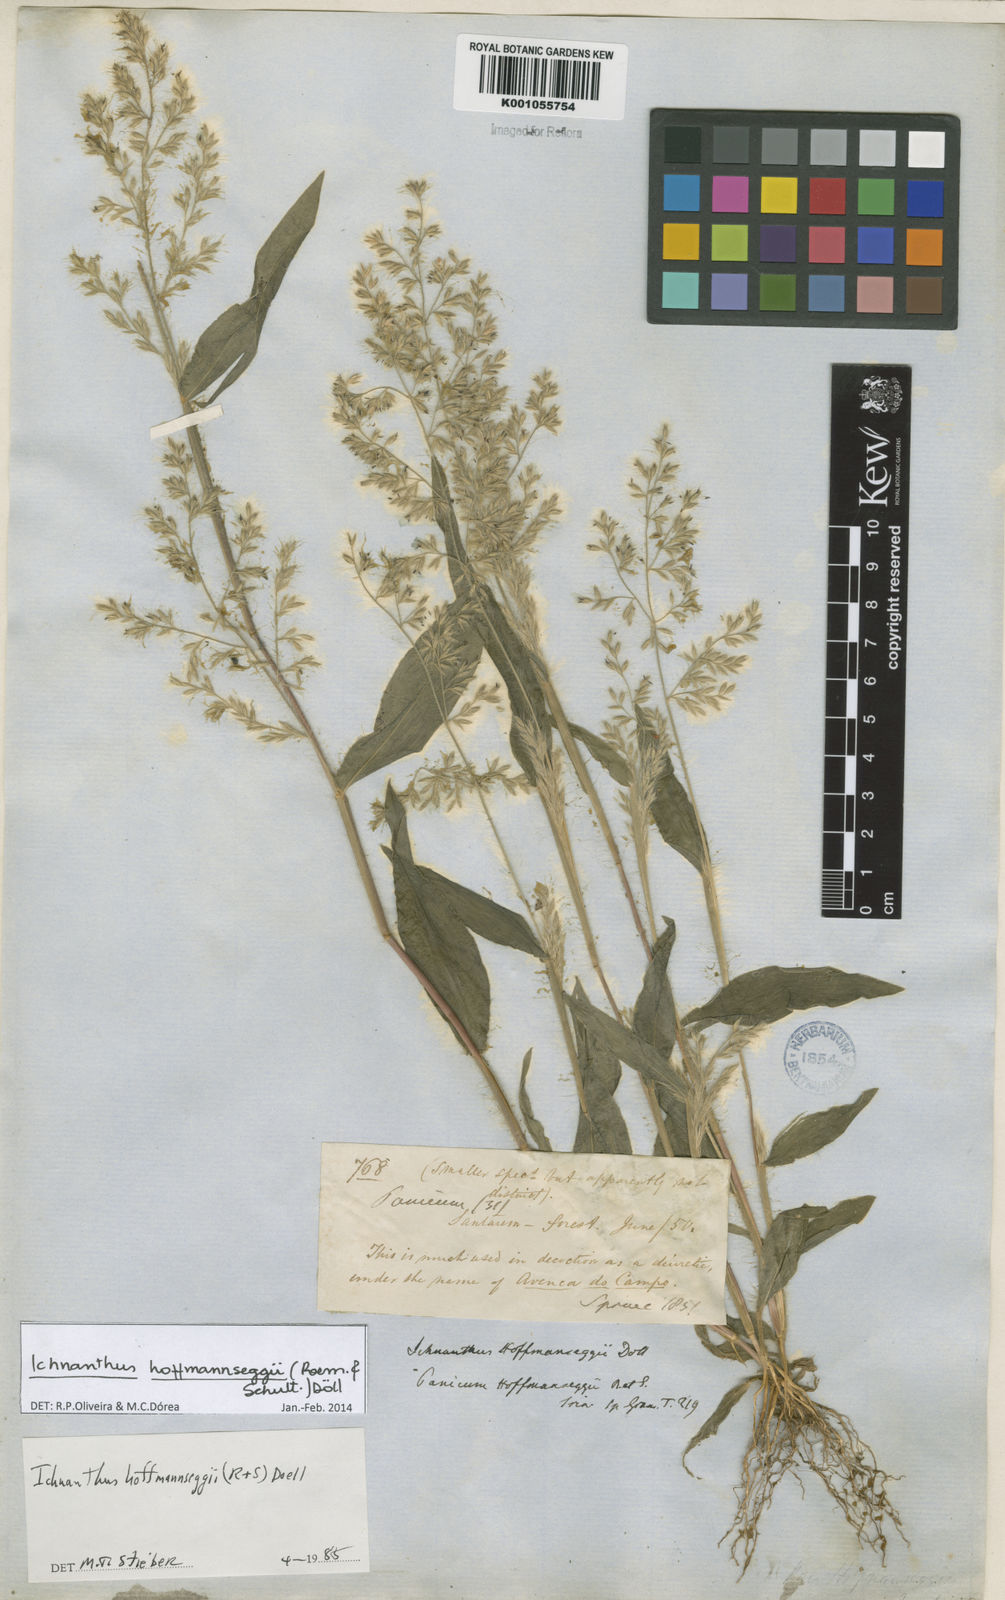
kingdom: Plantae
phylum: Tracheophyta
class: Liliopsida
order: Poales
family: Poaceae
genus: Ichnanthus
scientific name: Ichnanthus
